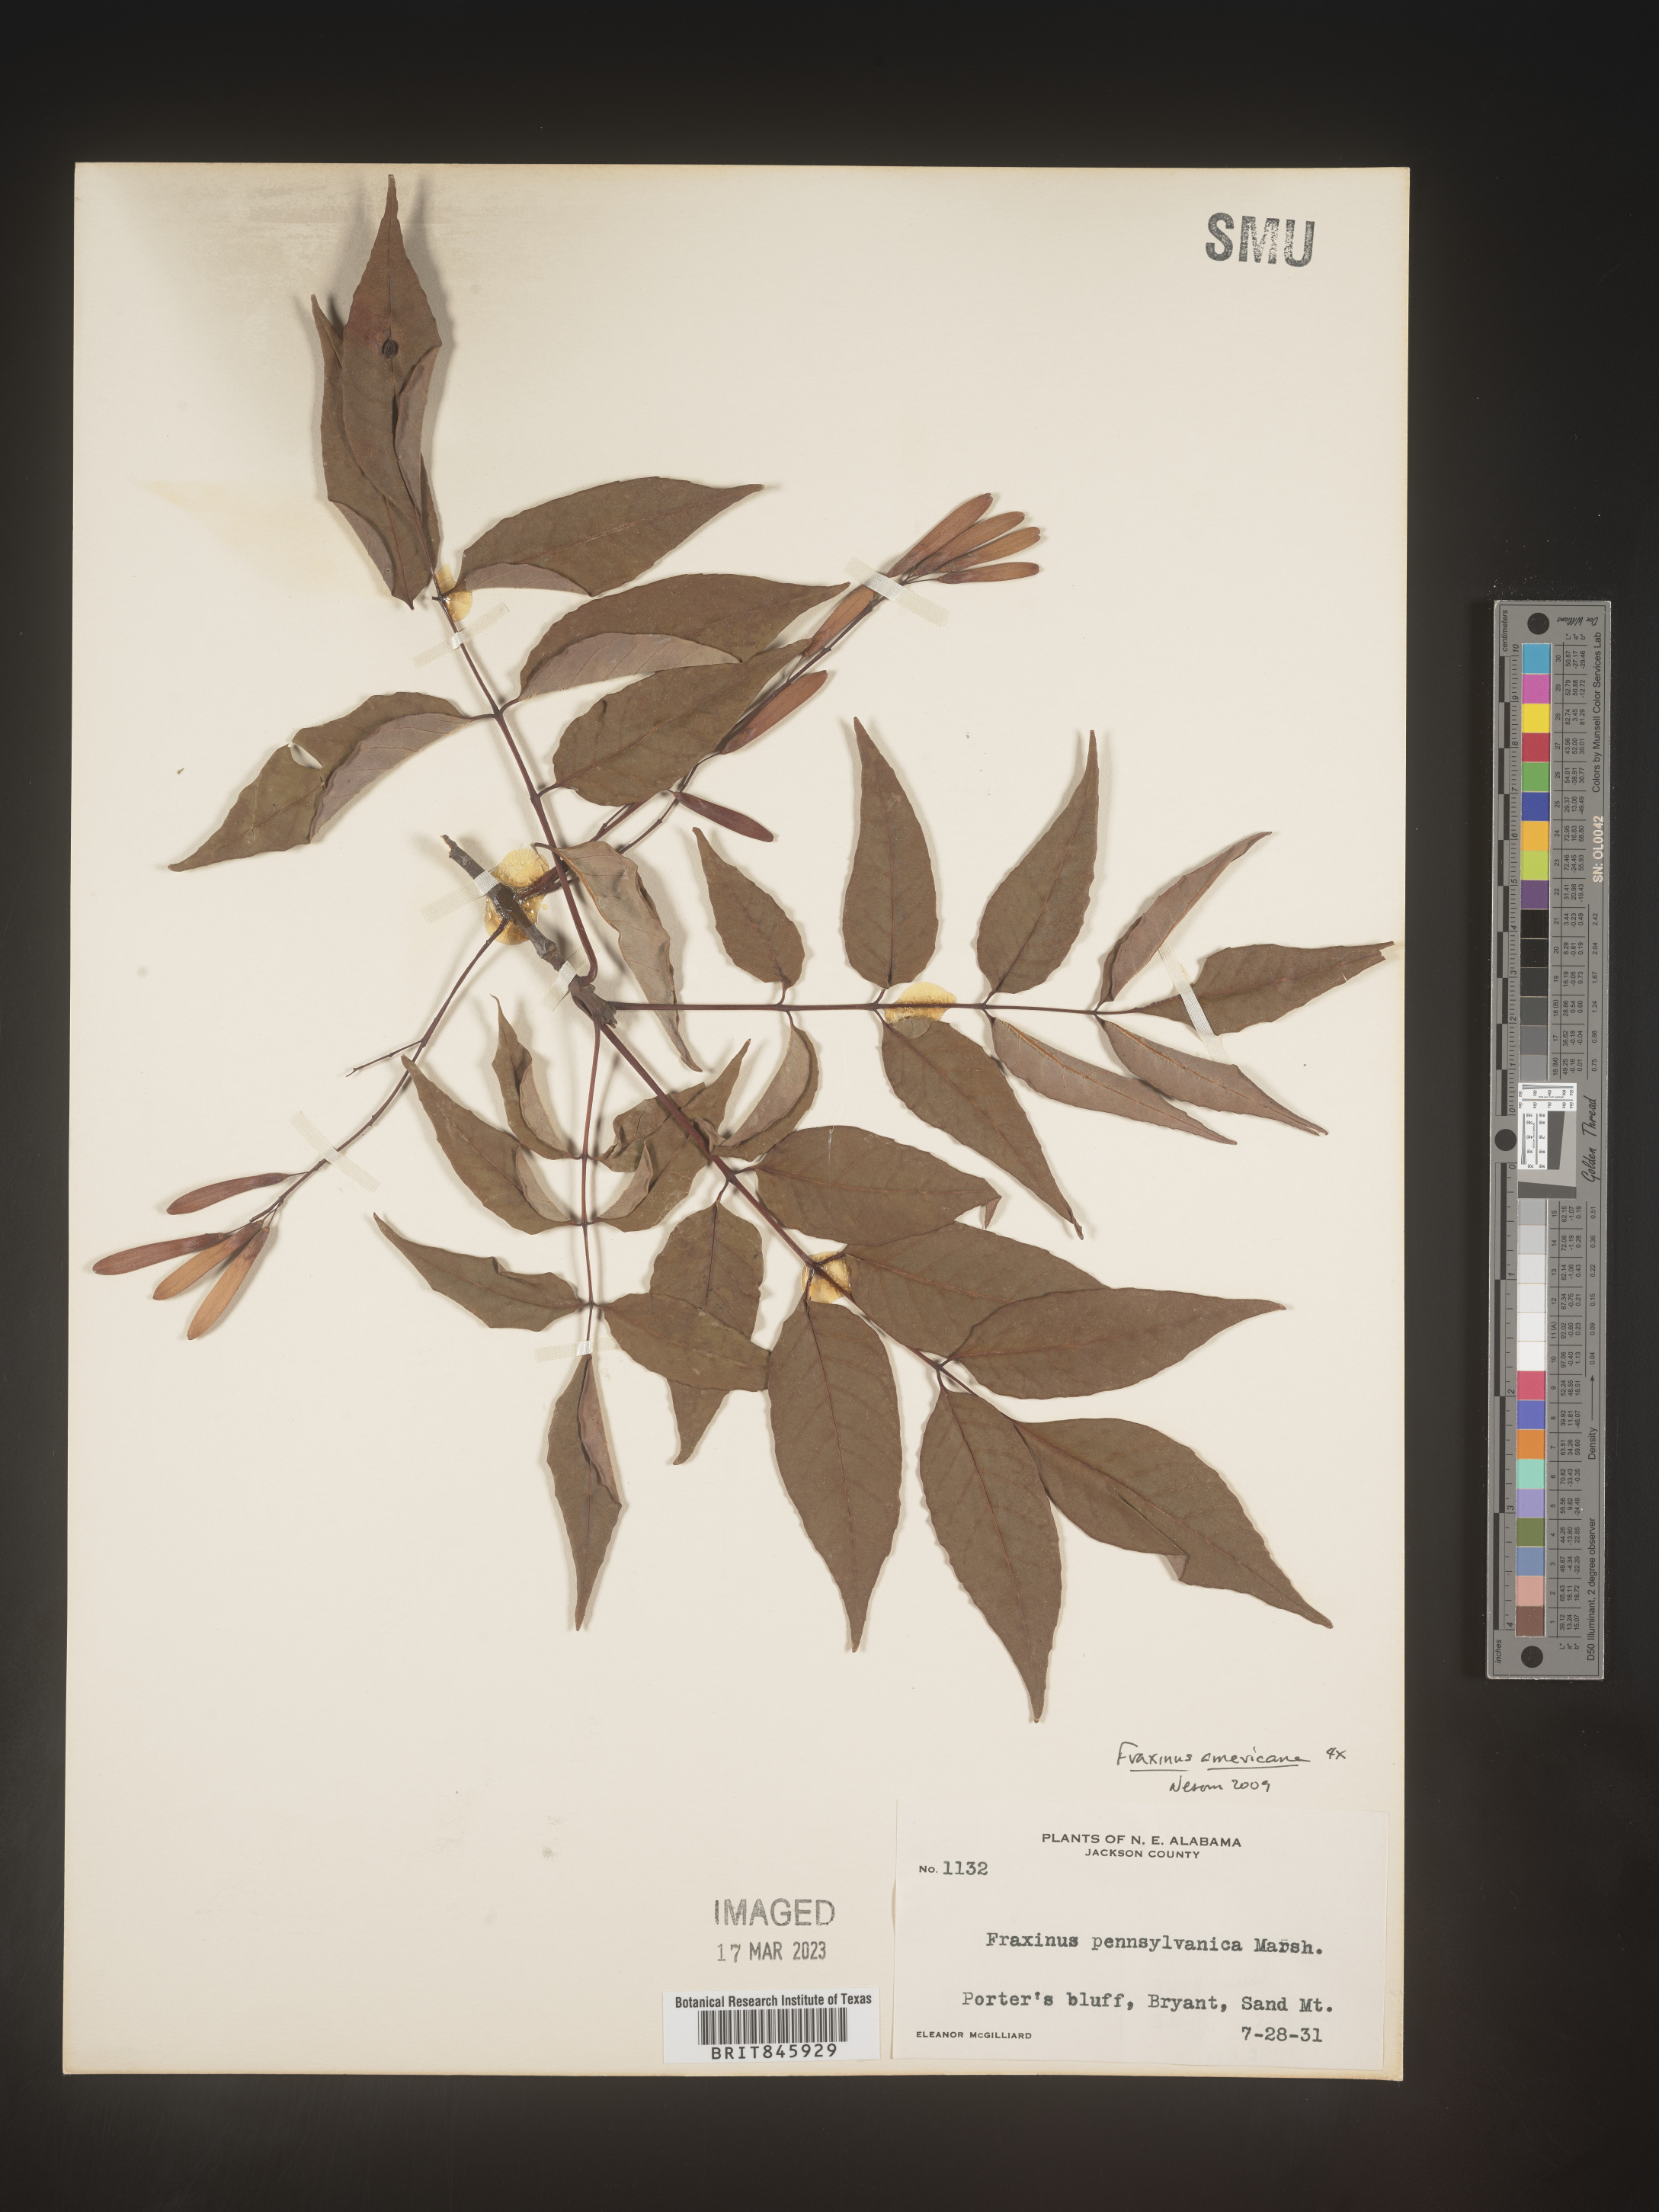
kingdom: Plantae
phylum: Tracheophyta
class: Magnoliopsida
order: Lamiales
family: Oleaceae
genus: Fraxinus
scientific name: Fraxinus americana
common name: White ash
